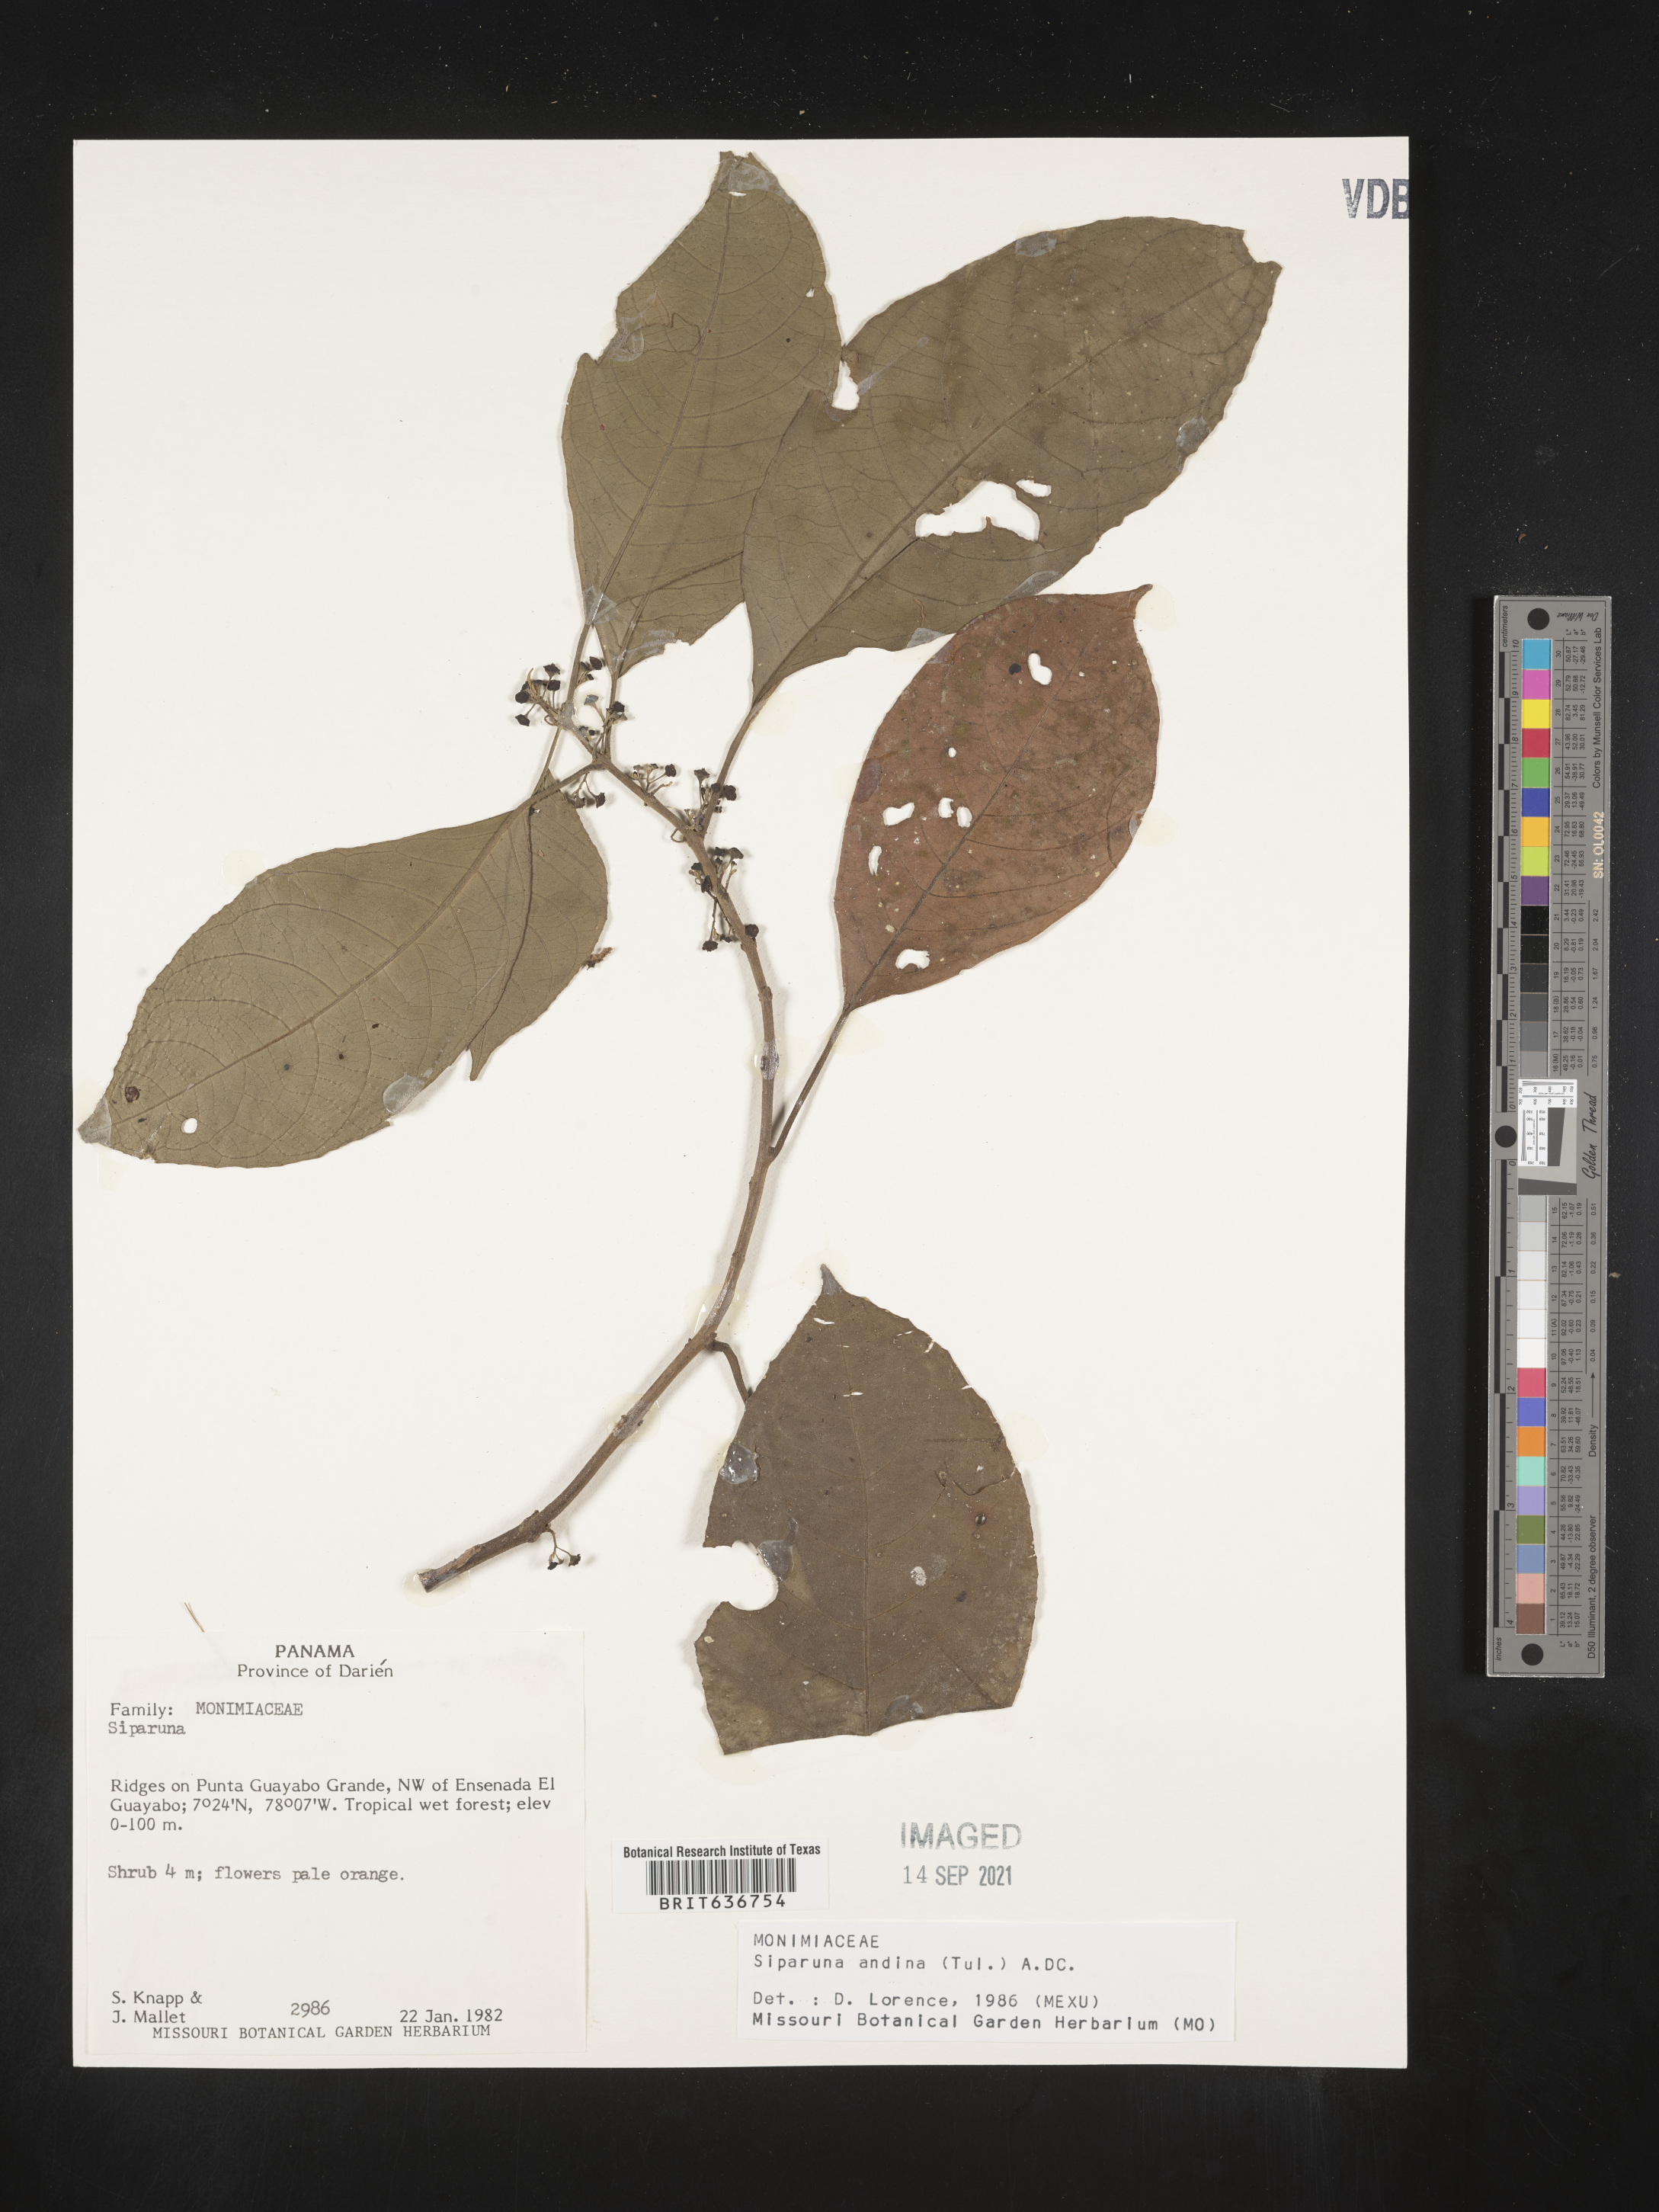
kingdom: Plantae
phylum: Tracheophyta
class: Magnoliopsida
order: Laurales
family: Siparunaceae
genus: Siparuna
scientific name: Siparuna
